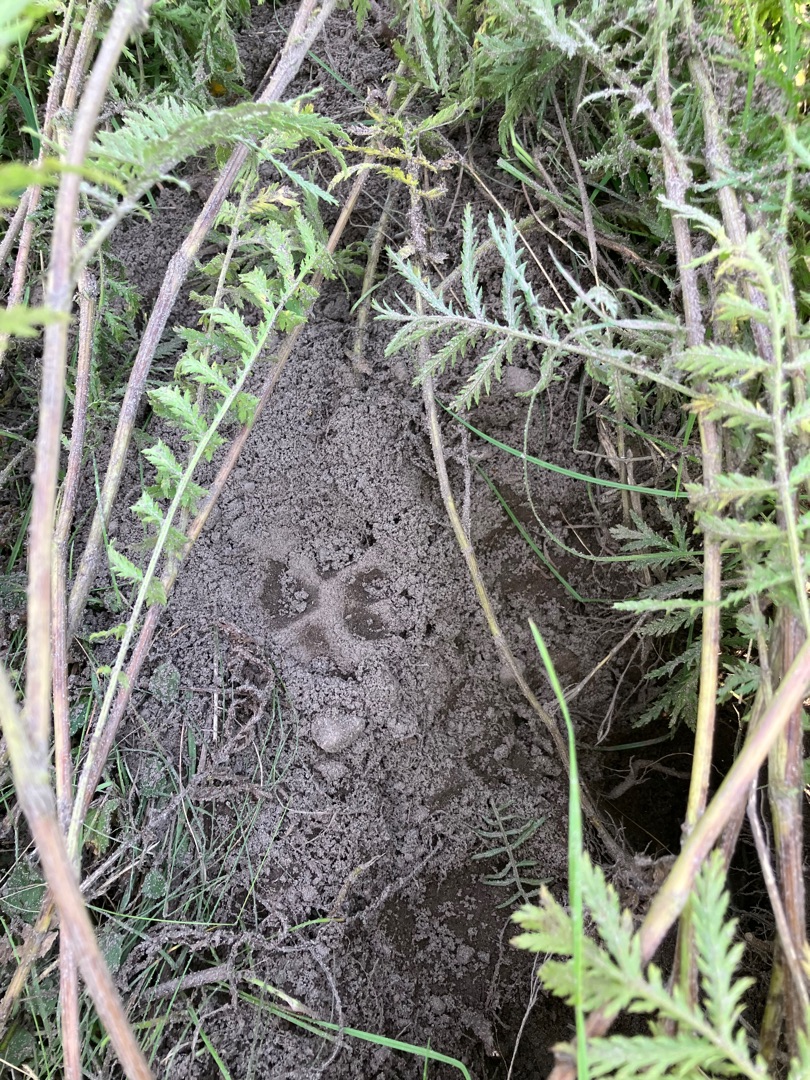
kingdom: Animalia
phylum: Chordata
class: Mammalia
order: Carnivora
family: Canidae
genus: Vulpes
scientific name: Vulpes vulpes
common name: Ræv
